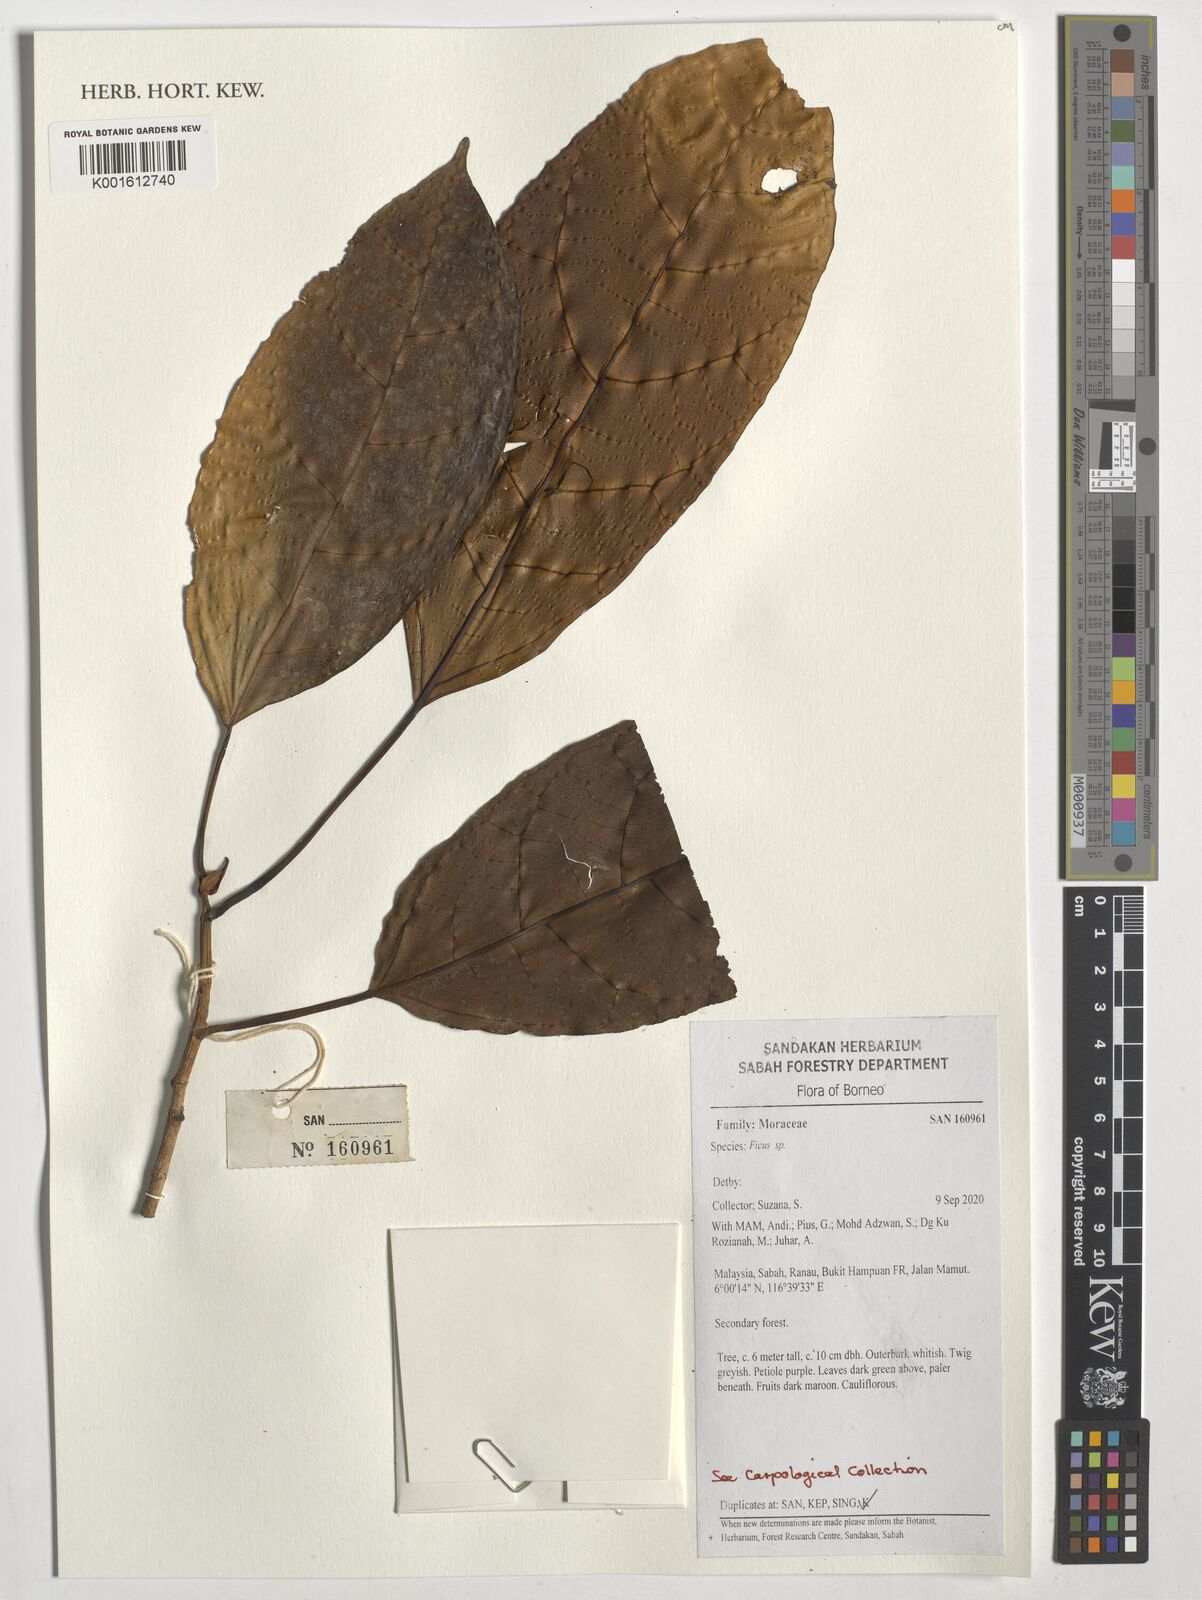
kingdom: Plantae
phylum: Tracheophyta
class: Magnoliopsida
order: Rosales
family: Moraceae
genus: Ficus
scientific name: Ficus
